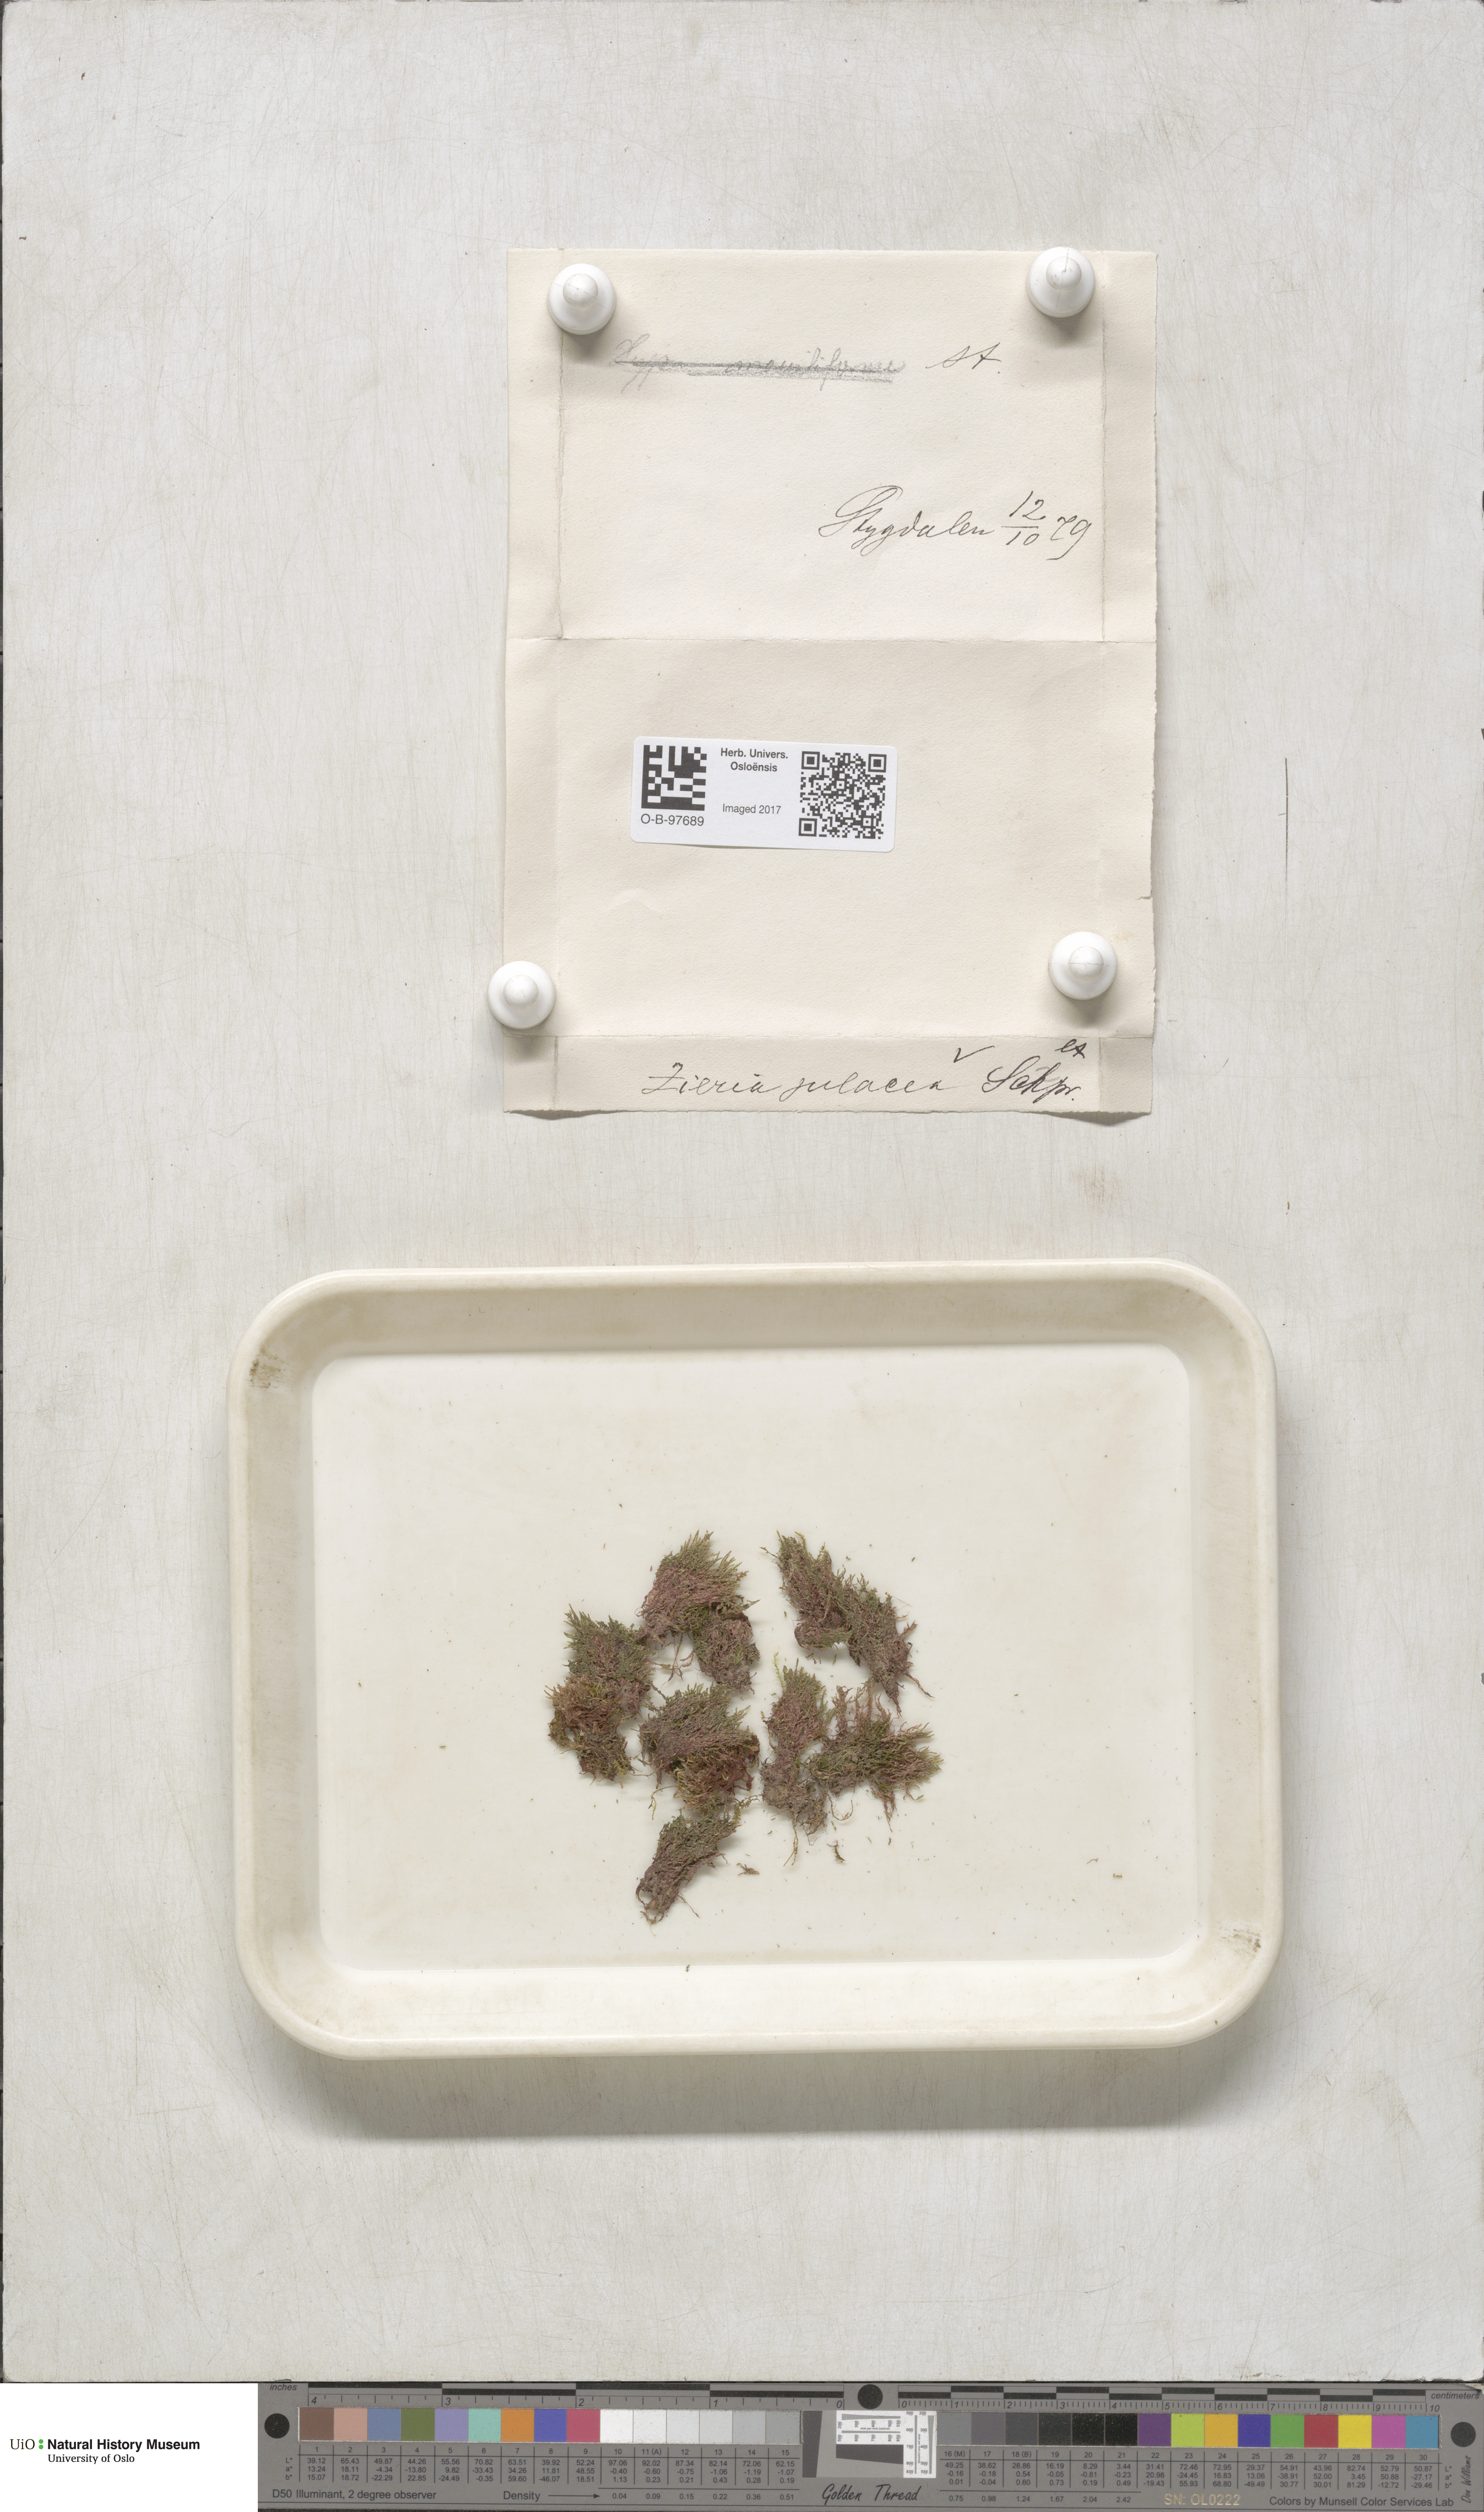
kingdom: Plantae
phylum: Bryophyta
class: Bryopsida
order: Bryales
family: Bryaceae
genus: Plagiobryum
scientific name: Plagiobryum zieri
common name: Zier's hump moss
